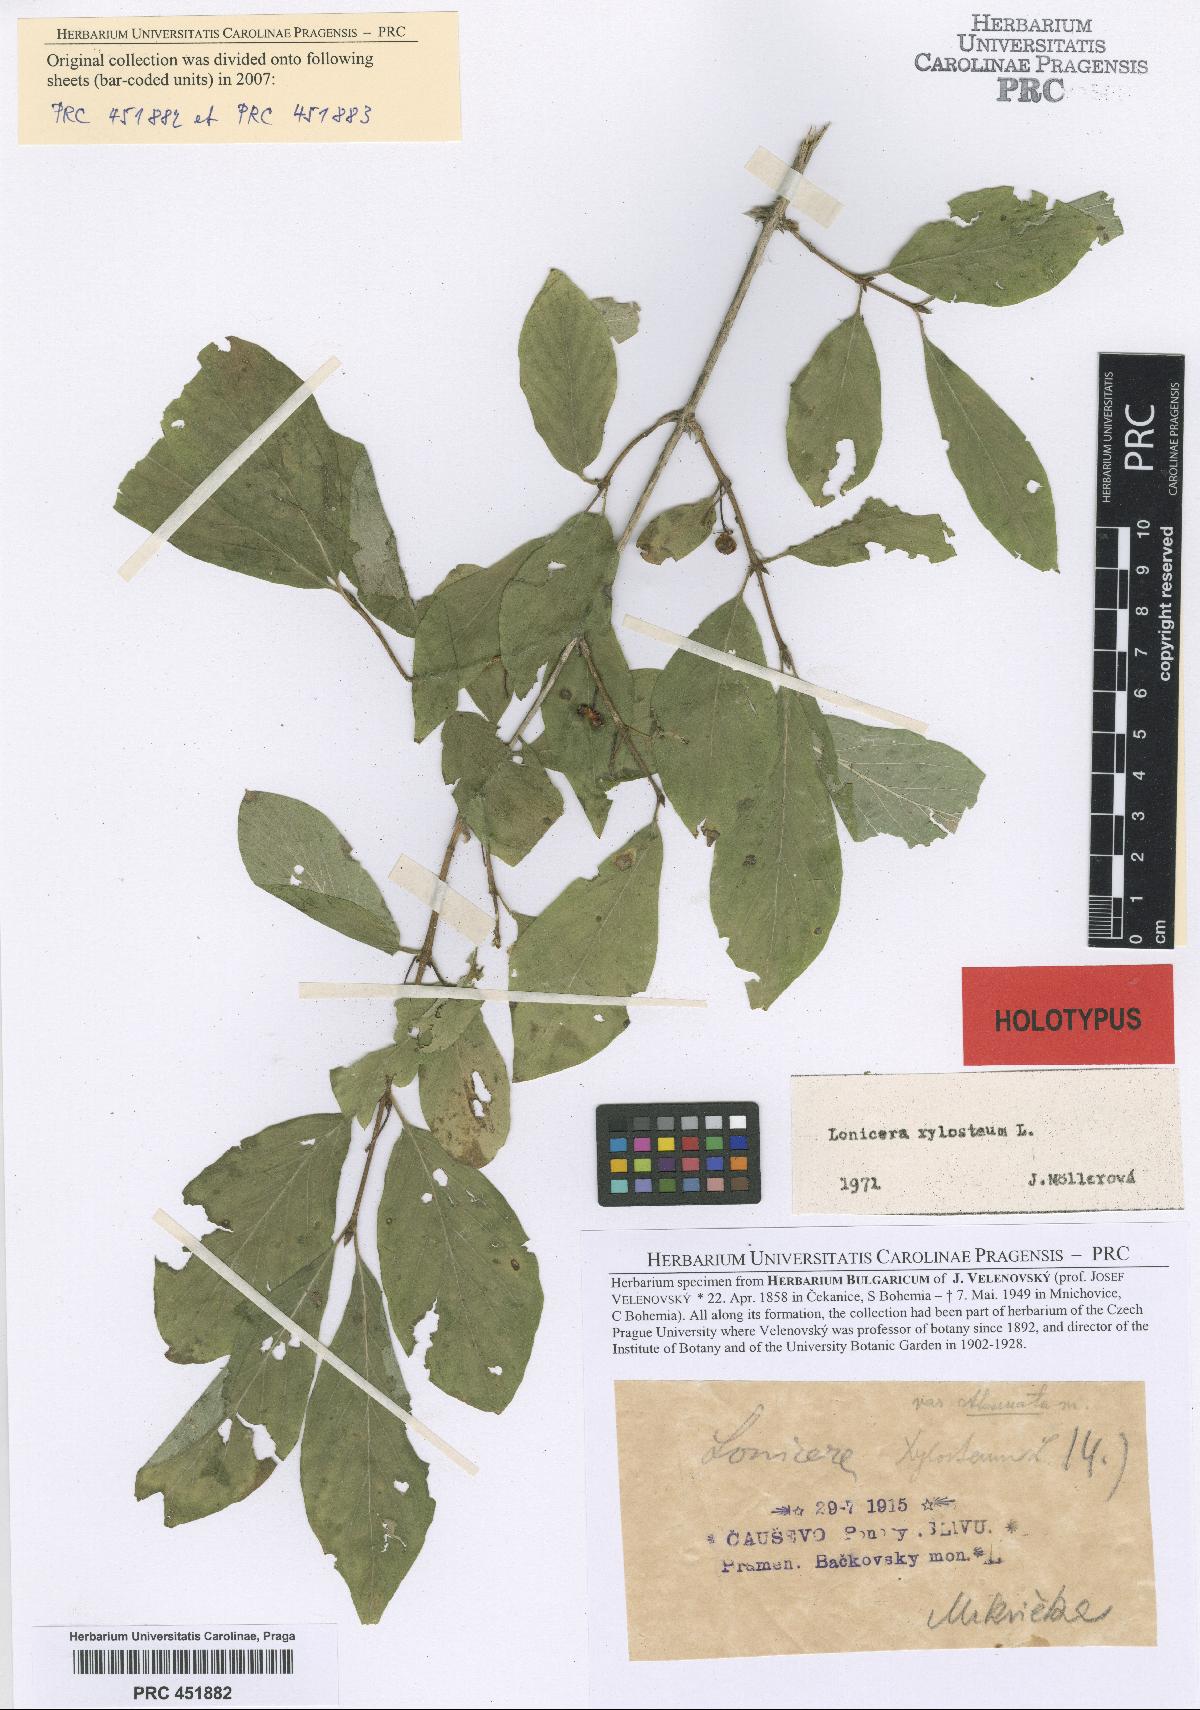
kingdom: Plantae
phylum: Tracheophyta
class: Magnoliopsida
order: Dipsacales
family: Caprifoliaceae
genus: Lonicera
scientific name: Lonicera xylosteum
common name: Fly honeysuckle
